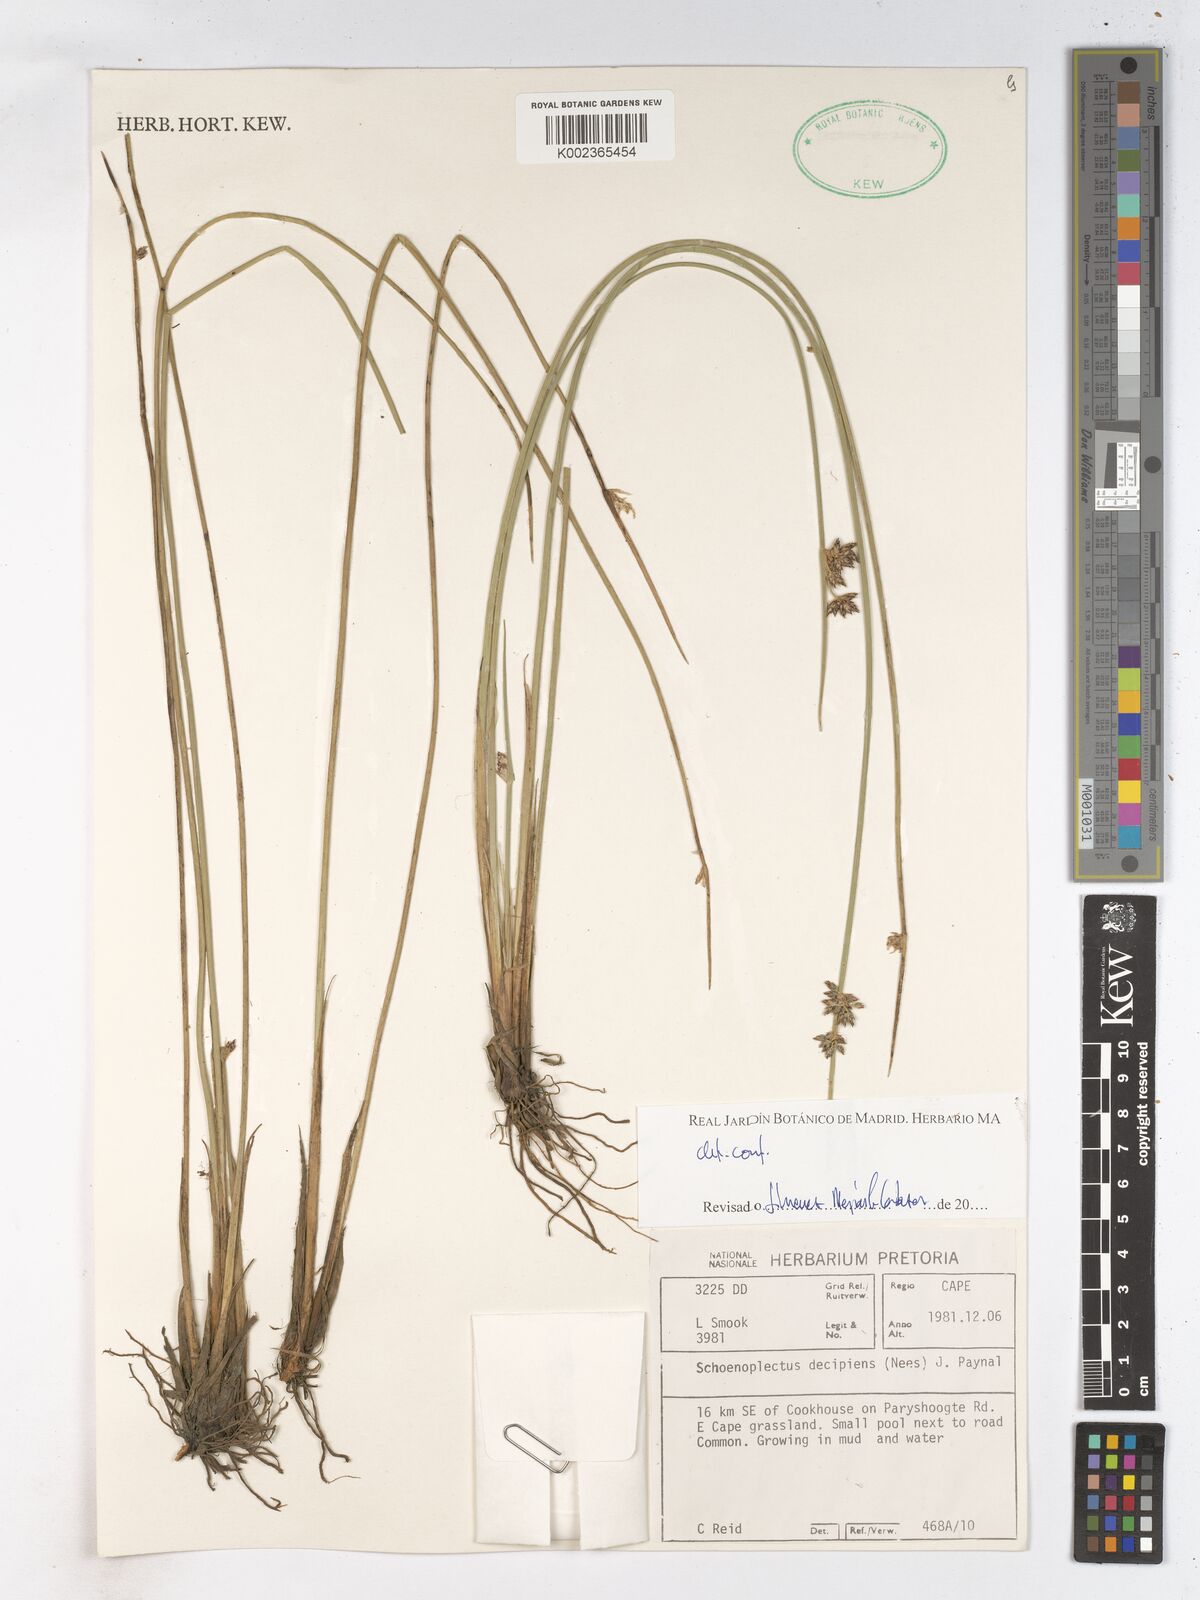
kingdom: Plantae
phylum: Tracheophyta
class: Liliopsida
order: Poales
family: Cyperaceae
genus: Schoenoplectiella
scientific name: Schoenoplectiella paludicola
